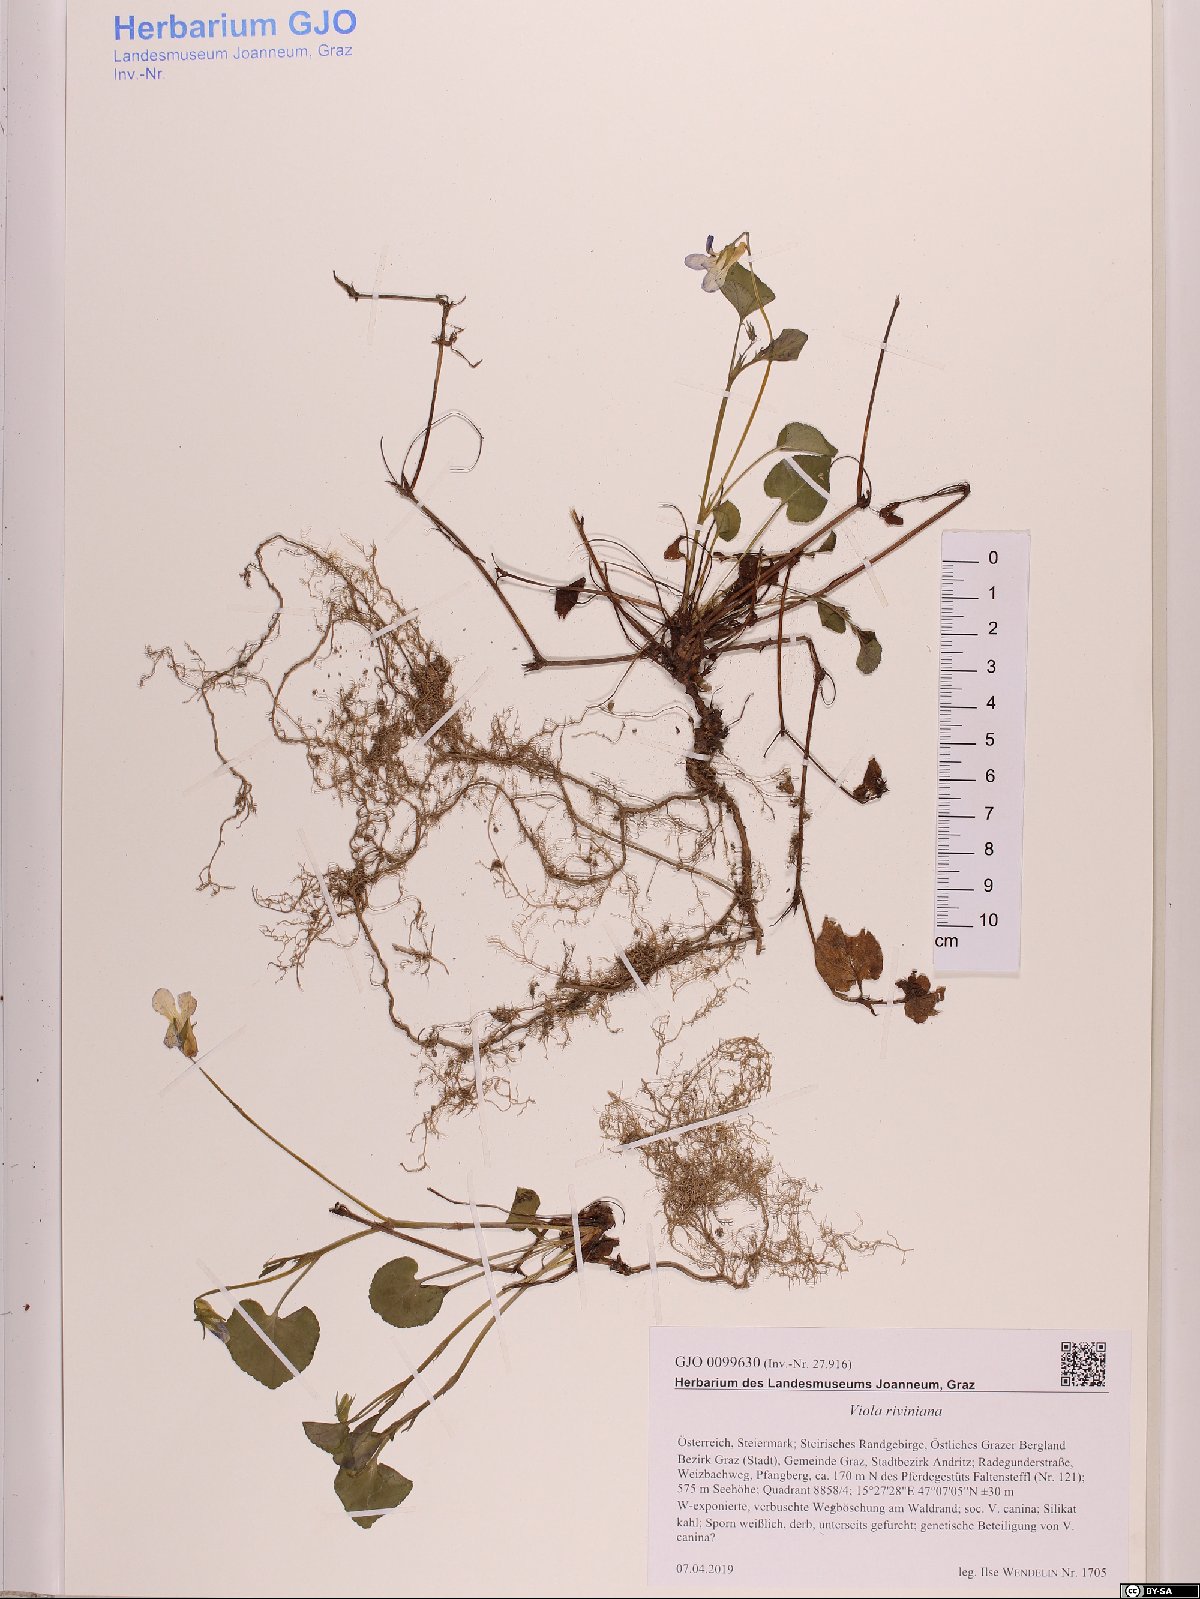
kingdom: Plantae
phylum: Tracheophyta
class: Magnoliopsida
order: Malpighiales
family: Violaceae
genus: Viola
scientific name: Viola riviniana
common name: Common dog-violet
